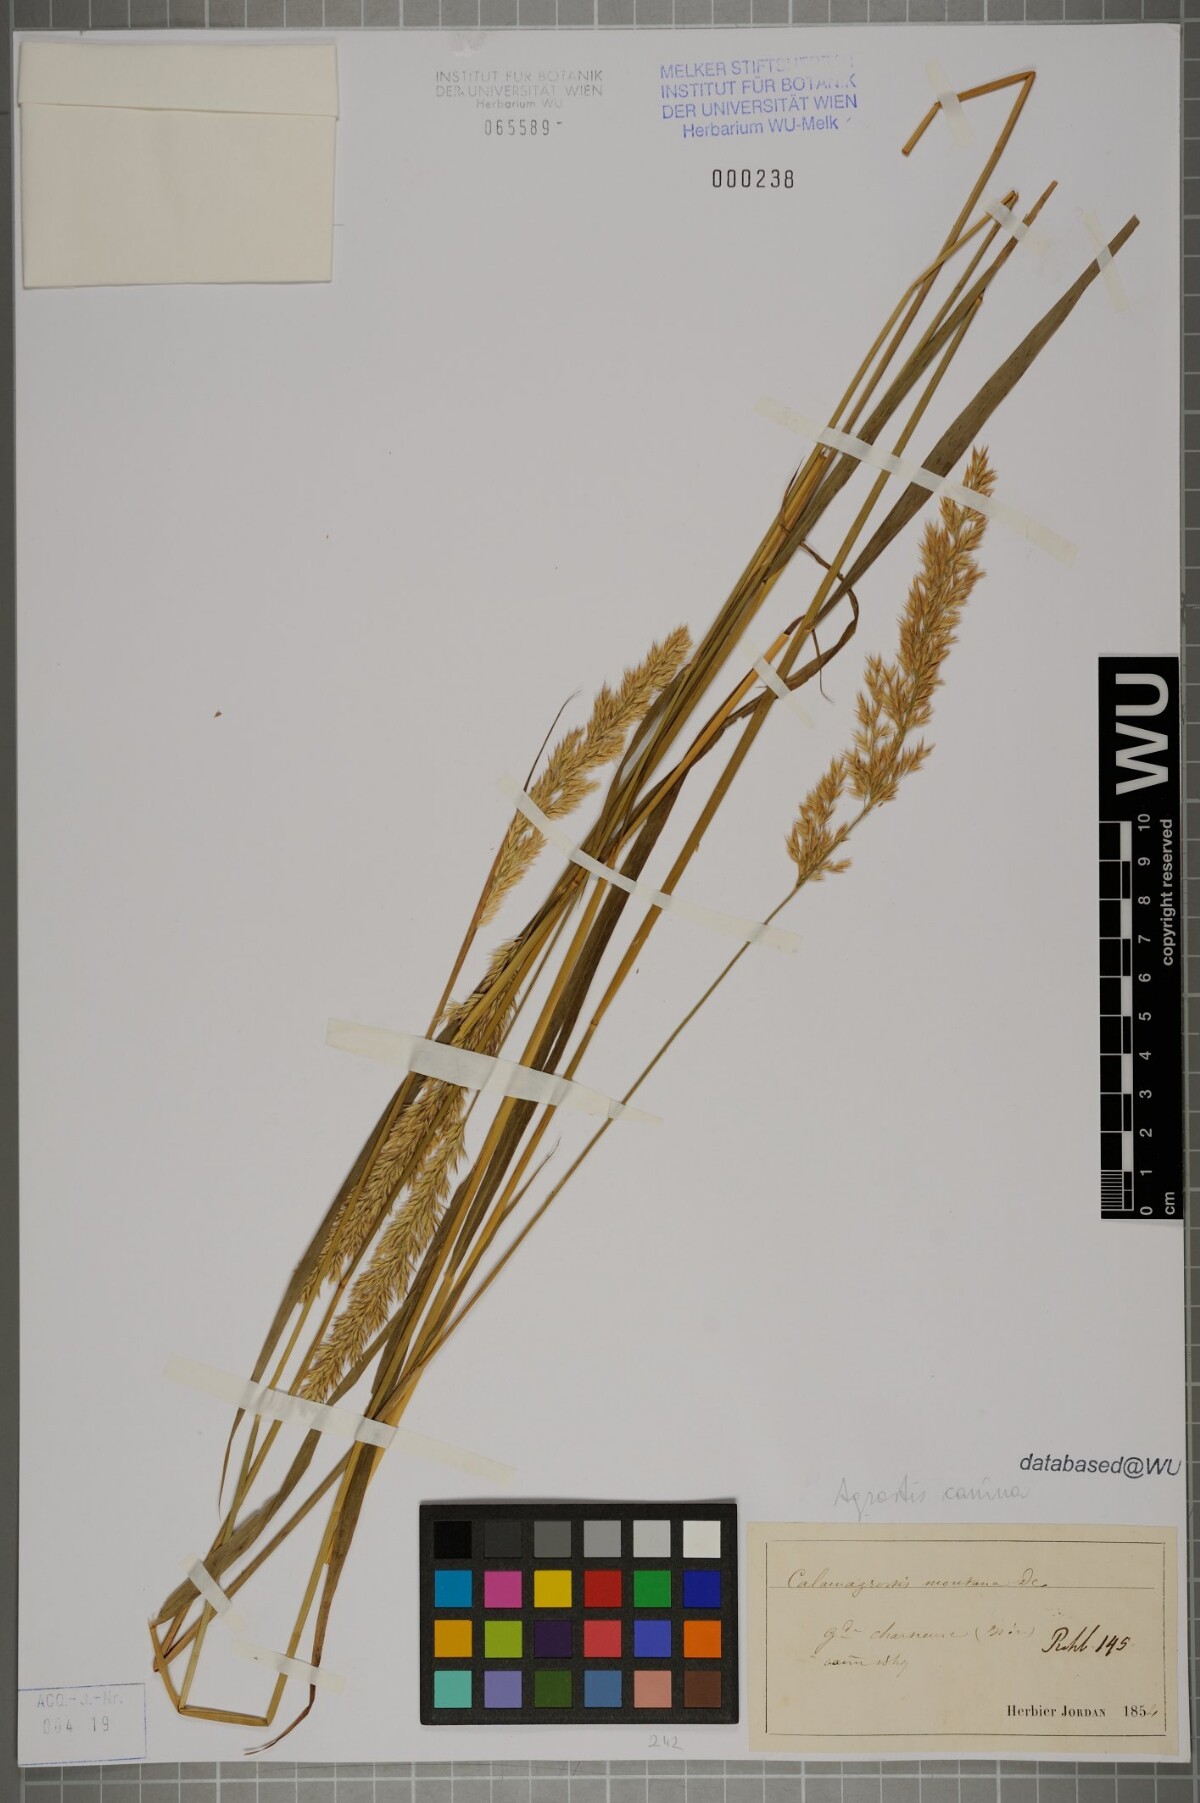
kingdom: Plantae
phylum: Tracheophyta
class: Liliopsida
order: Poales
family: Poaceae
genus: Agrostis
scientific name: Agrostis canina
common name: Velvet bent
